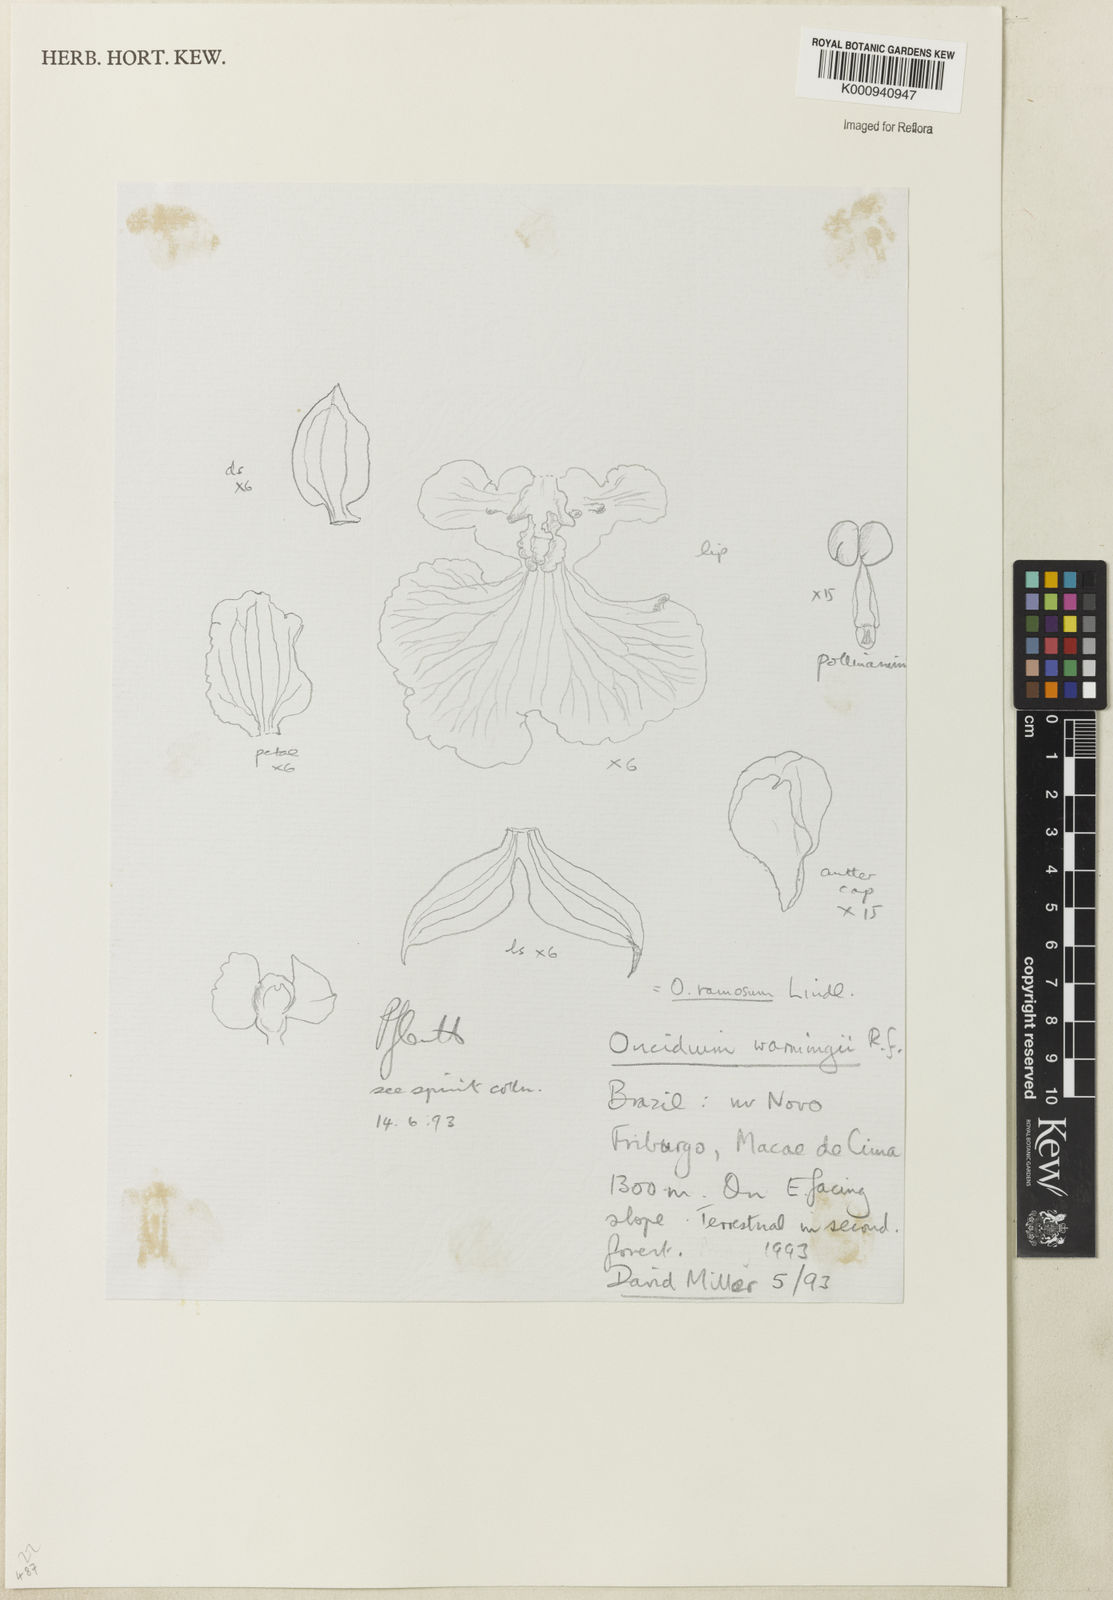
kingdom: Plantae
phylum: Tracheophyta
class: Liliopsida
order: Asparagales
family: Orchidaceae
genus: Gomesa
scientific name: Gomesa majevskyae
